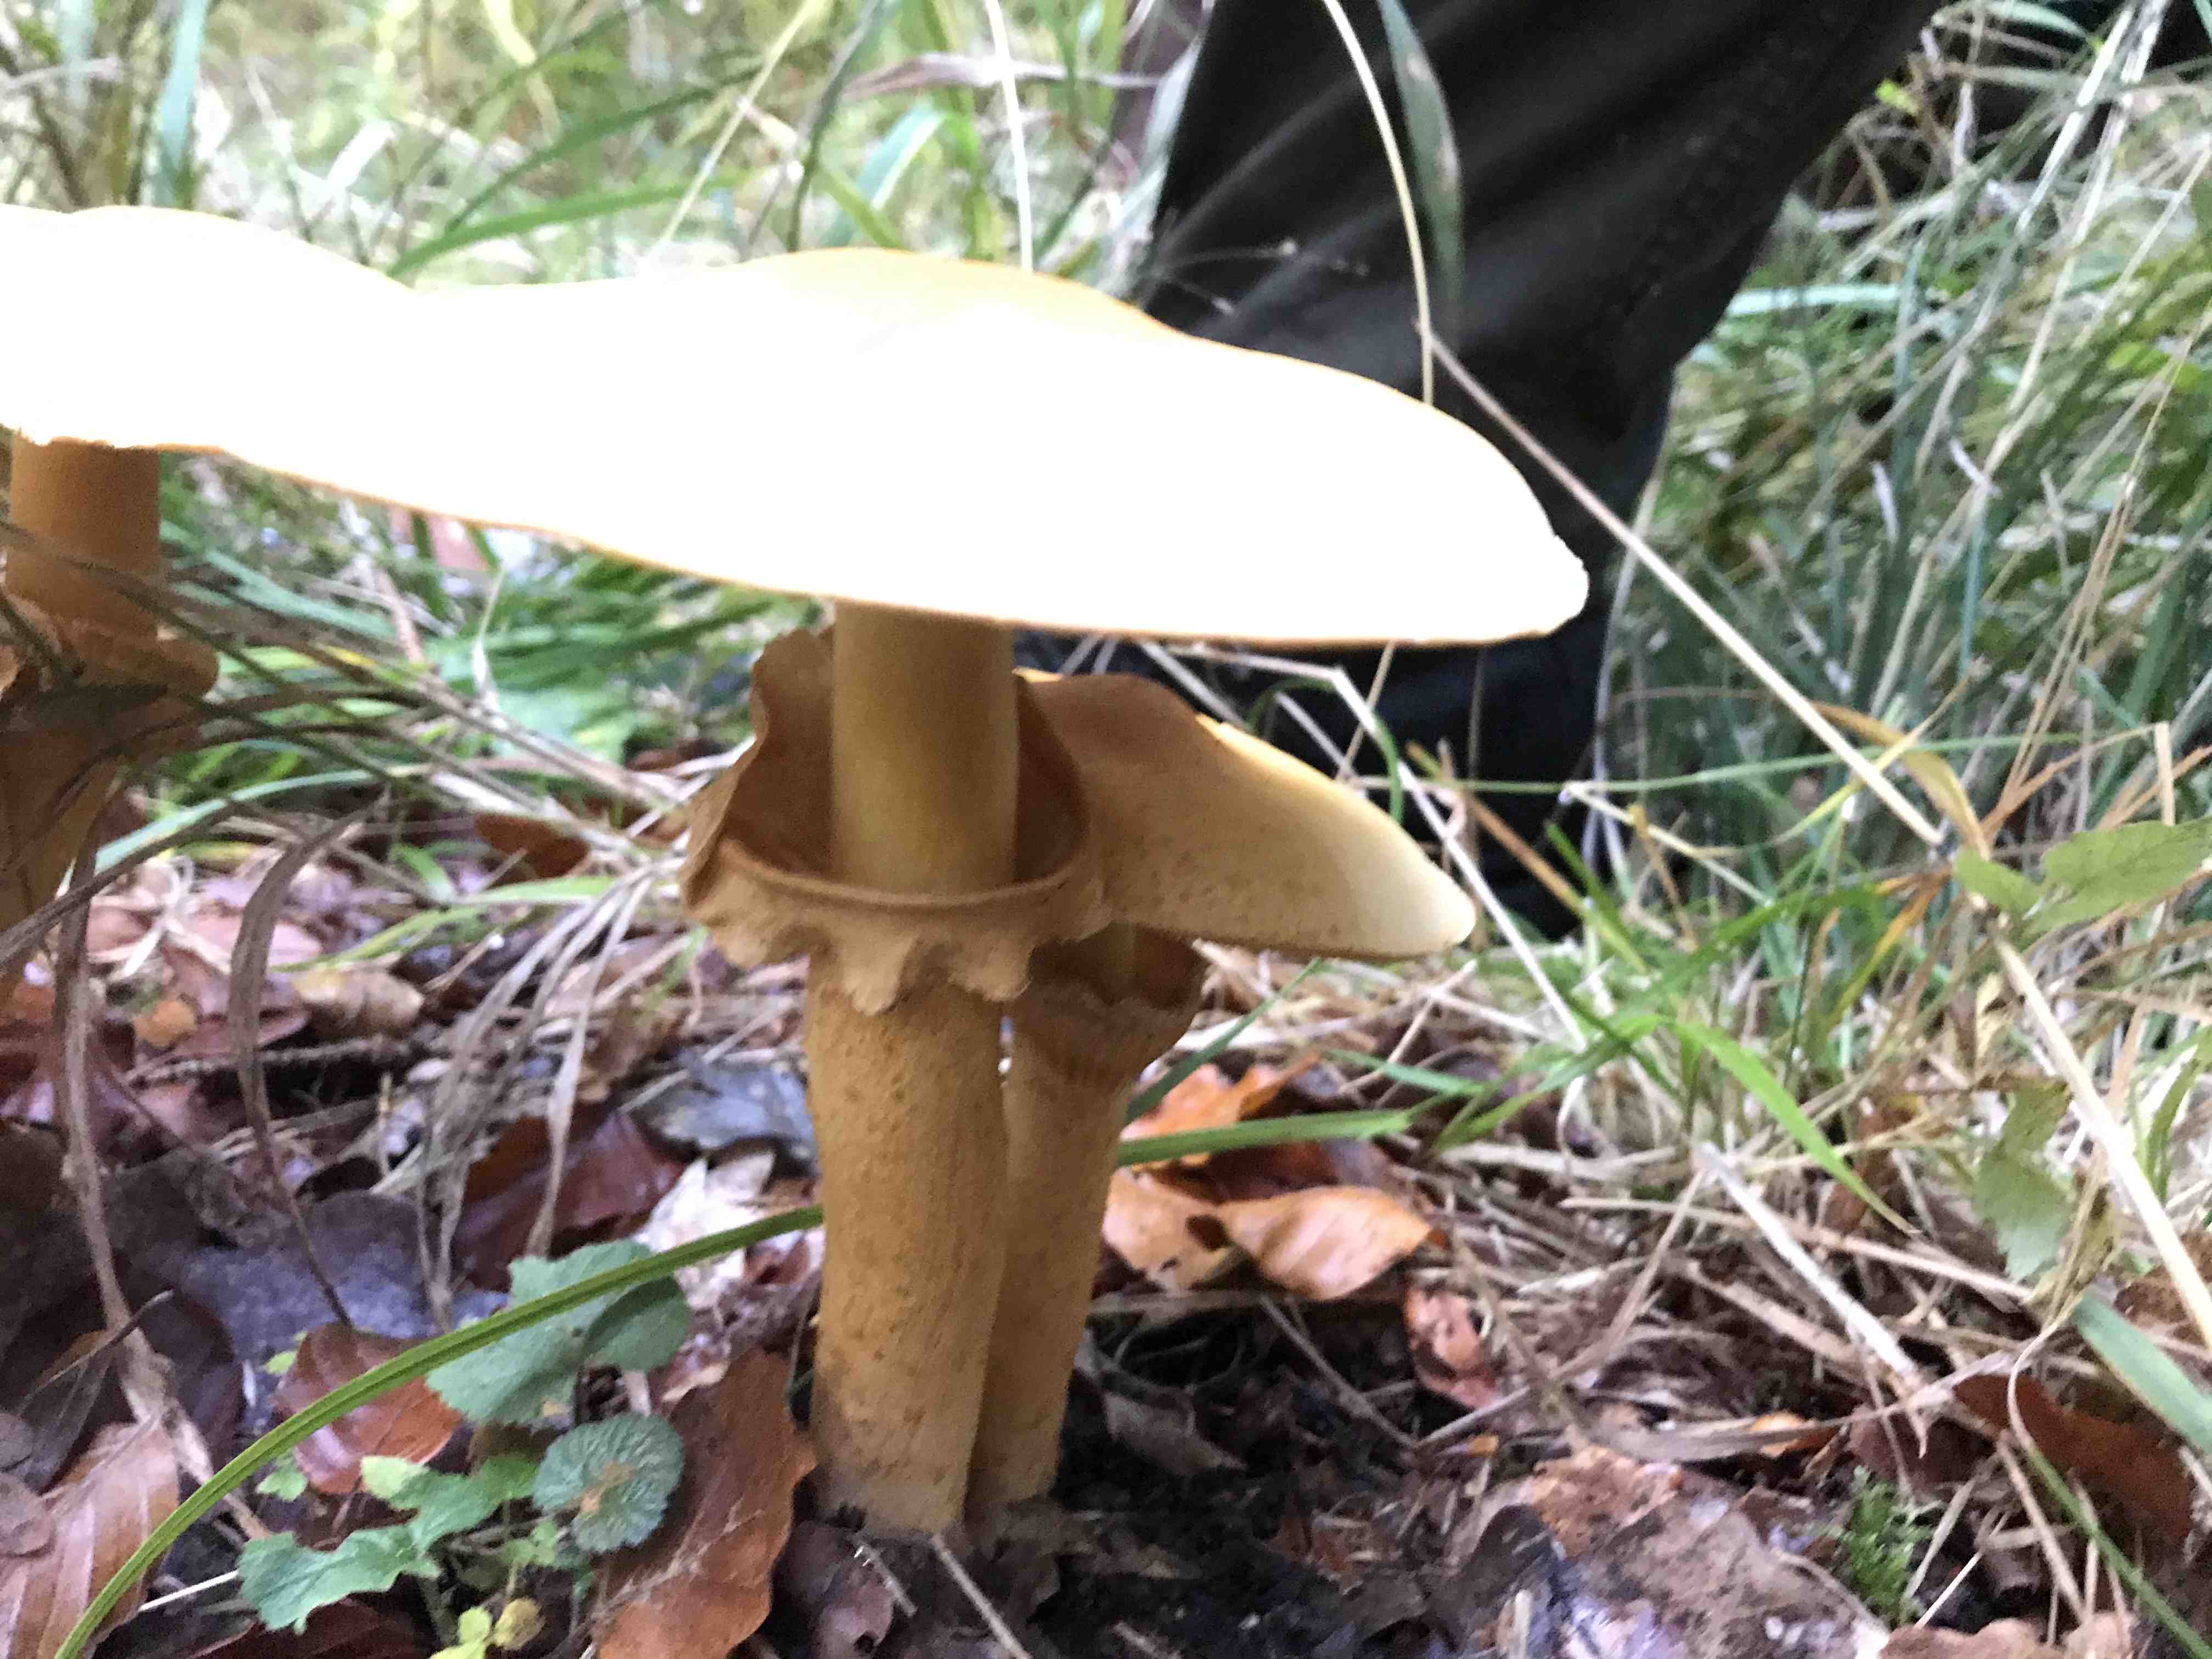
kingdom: Fungi
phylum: Basidiomycota
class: Agaricomycetes
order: Agaricales
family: Tricholomataceae
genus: Phaeolepiota
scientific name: Phaeolepiota aurea
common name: gyldenhat
